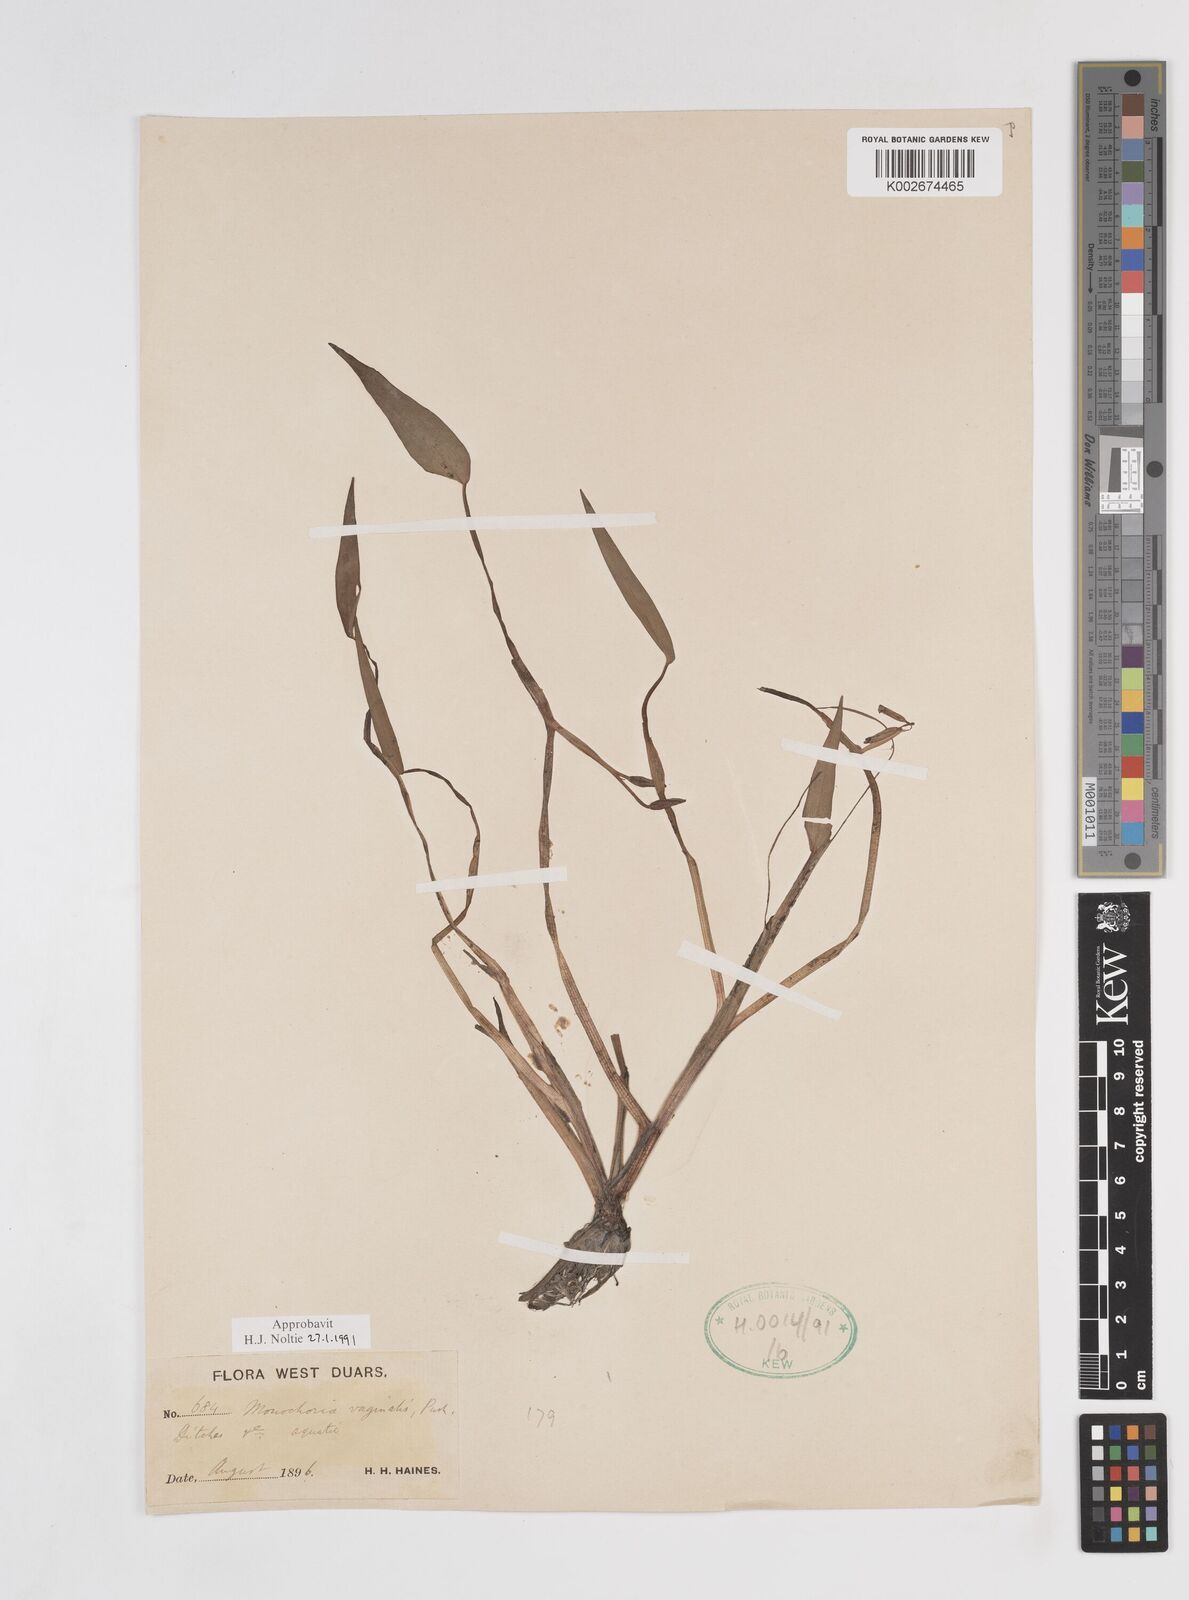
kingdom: Plantae
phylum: Tracheophyta
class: Liliopsida
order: Commelinales
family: Pontederiaceae
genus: Pontederia
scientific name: Pontederia vaginalis
